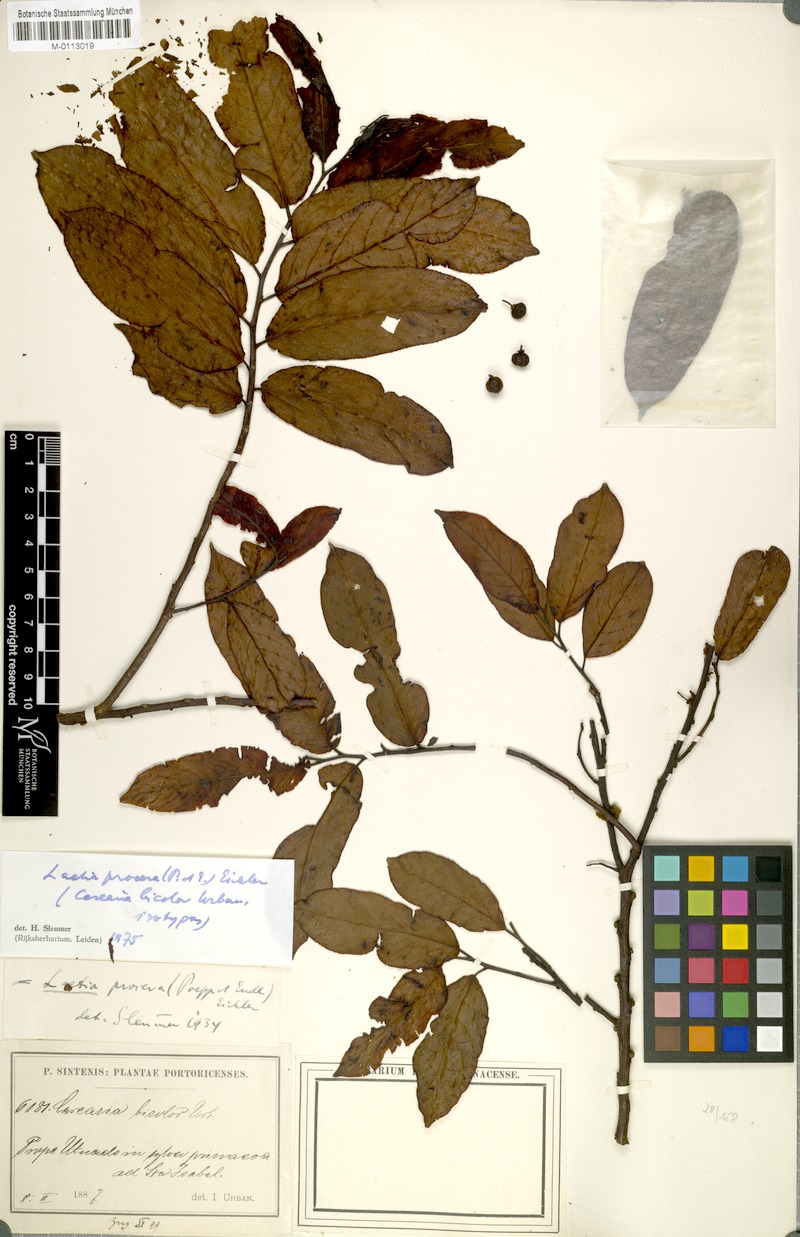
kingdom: Plantae
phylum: Tracheophyta
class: Magnoliopsida
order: Malpighiales
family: Salicaceae
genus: Casearia
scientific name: Casearia bicolor
